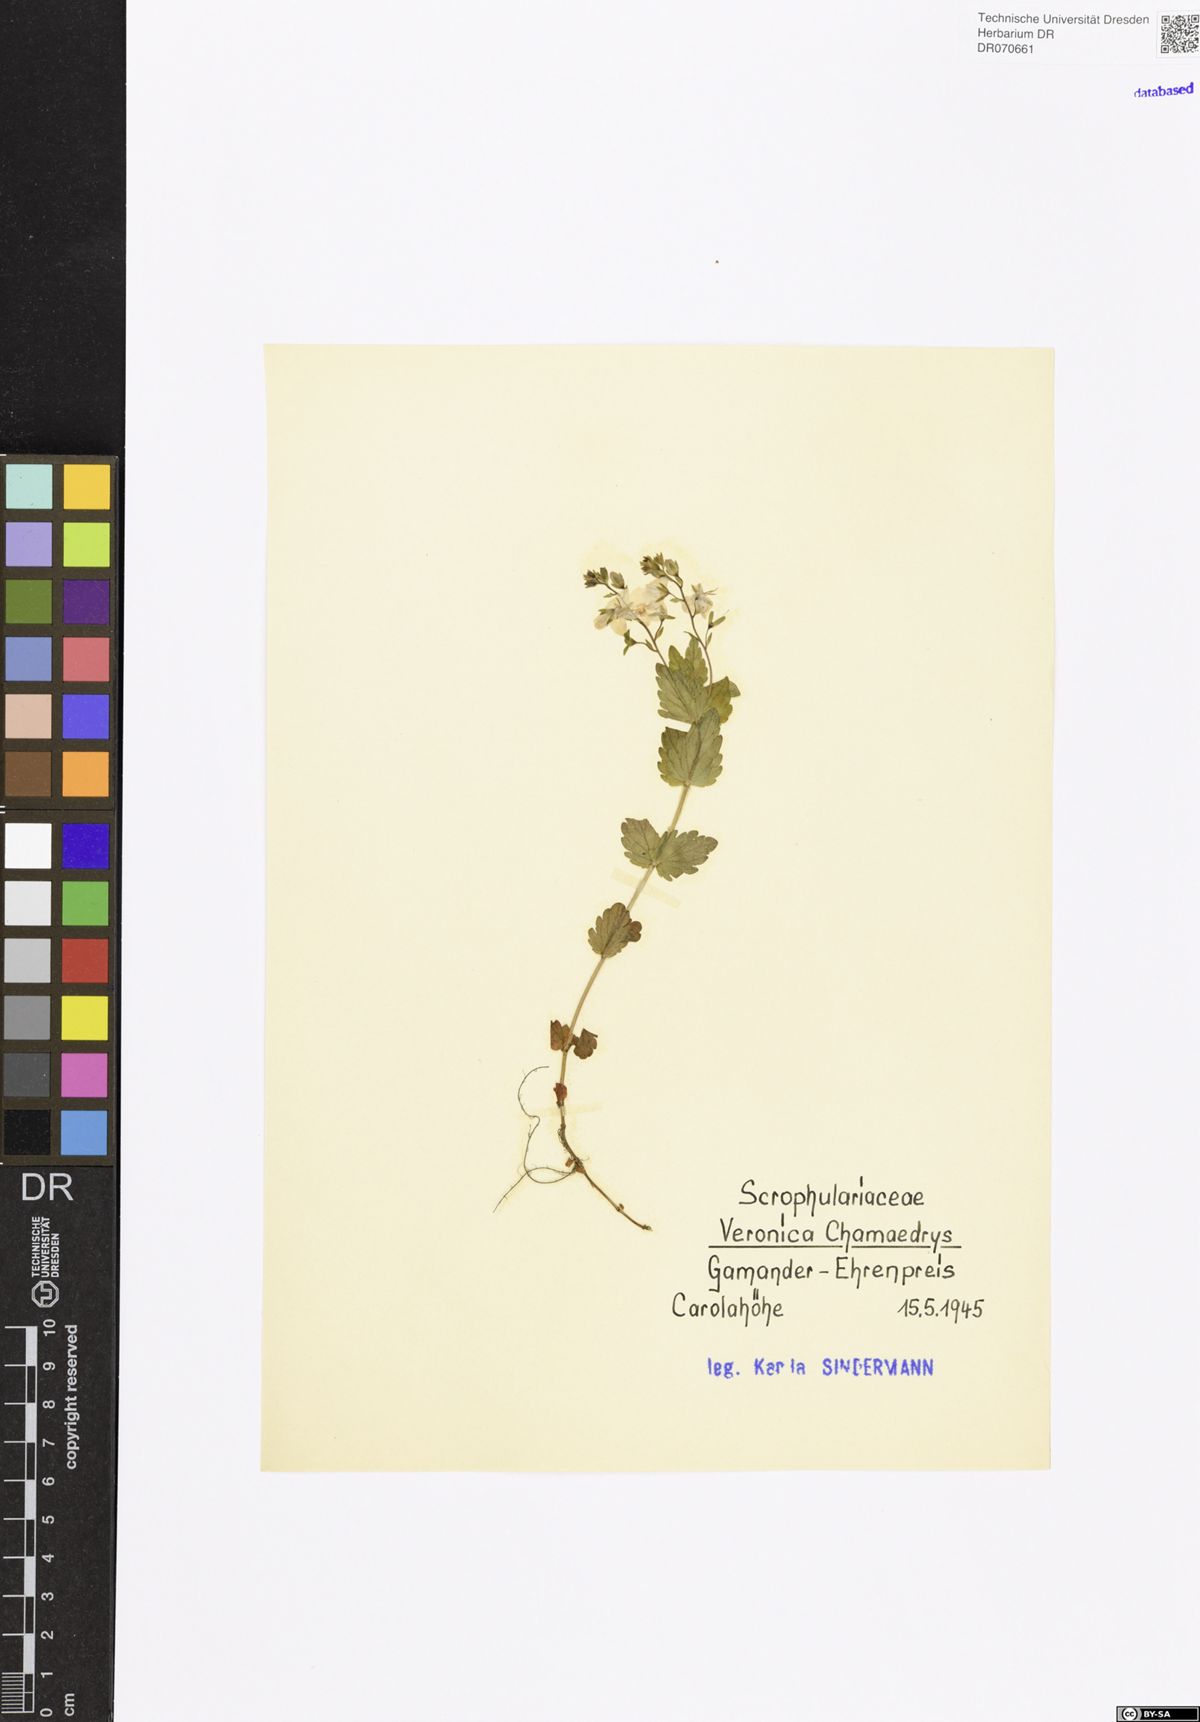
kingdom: Plantae
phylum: Tracheophyta
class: Magnoliopsida
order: Lamiales
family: Plantaginaceae
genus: Veronica
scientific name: Veronica chamaedrys
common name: Germander speedwell
